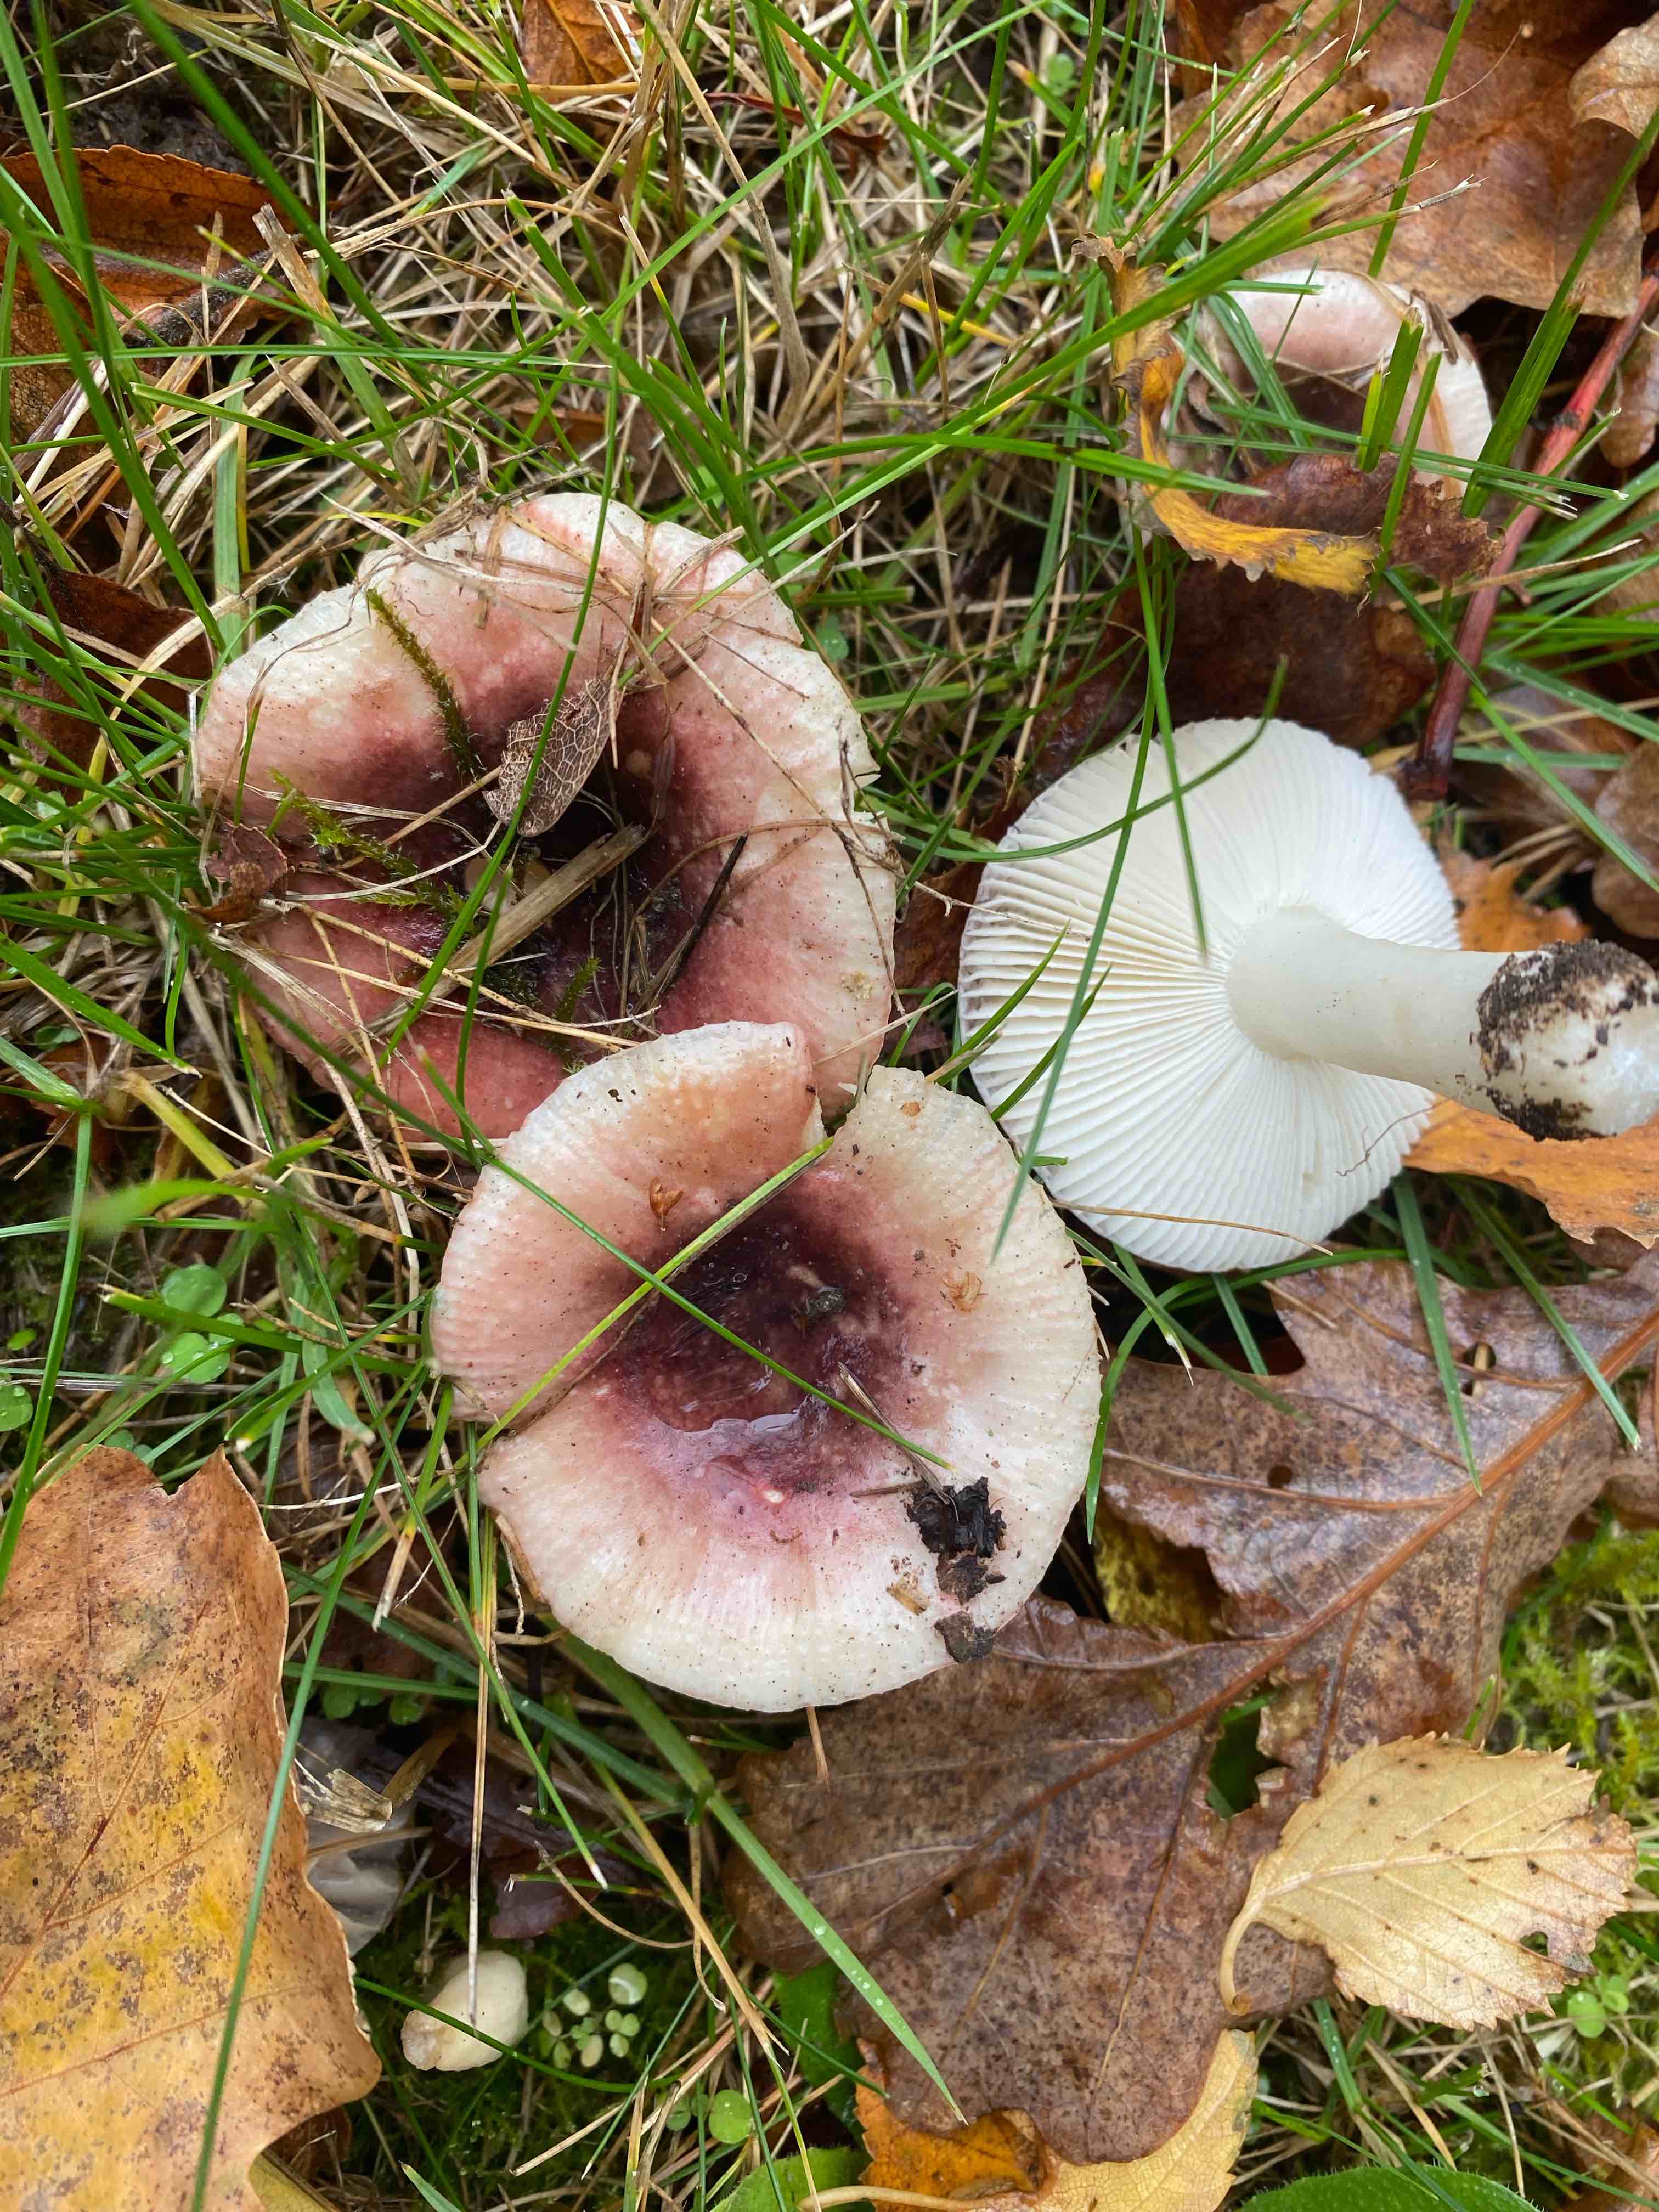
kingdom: Fungi
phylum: Basidiomycota
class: Agaricomycetes
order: Russulales
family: Russulaceae
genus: Russula
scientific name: Russula fragilis
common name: savbladet skørhat
